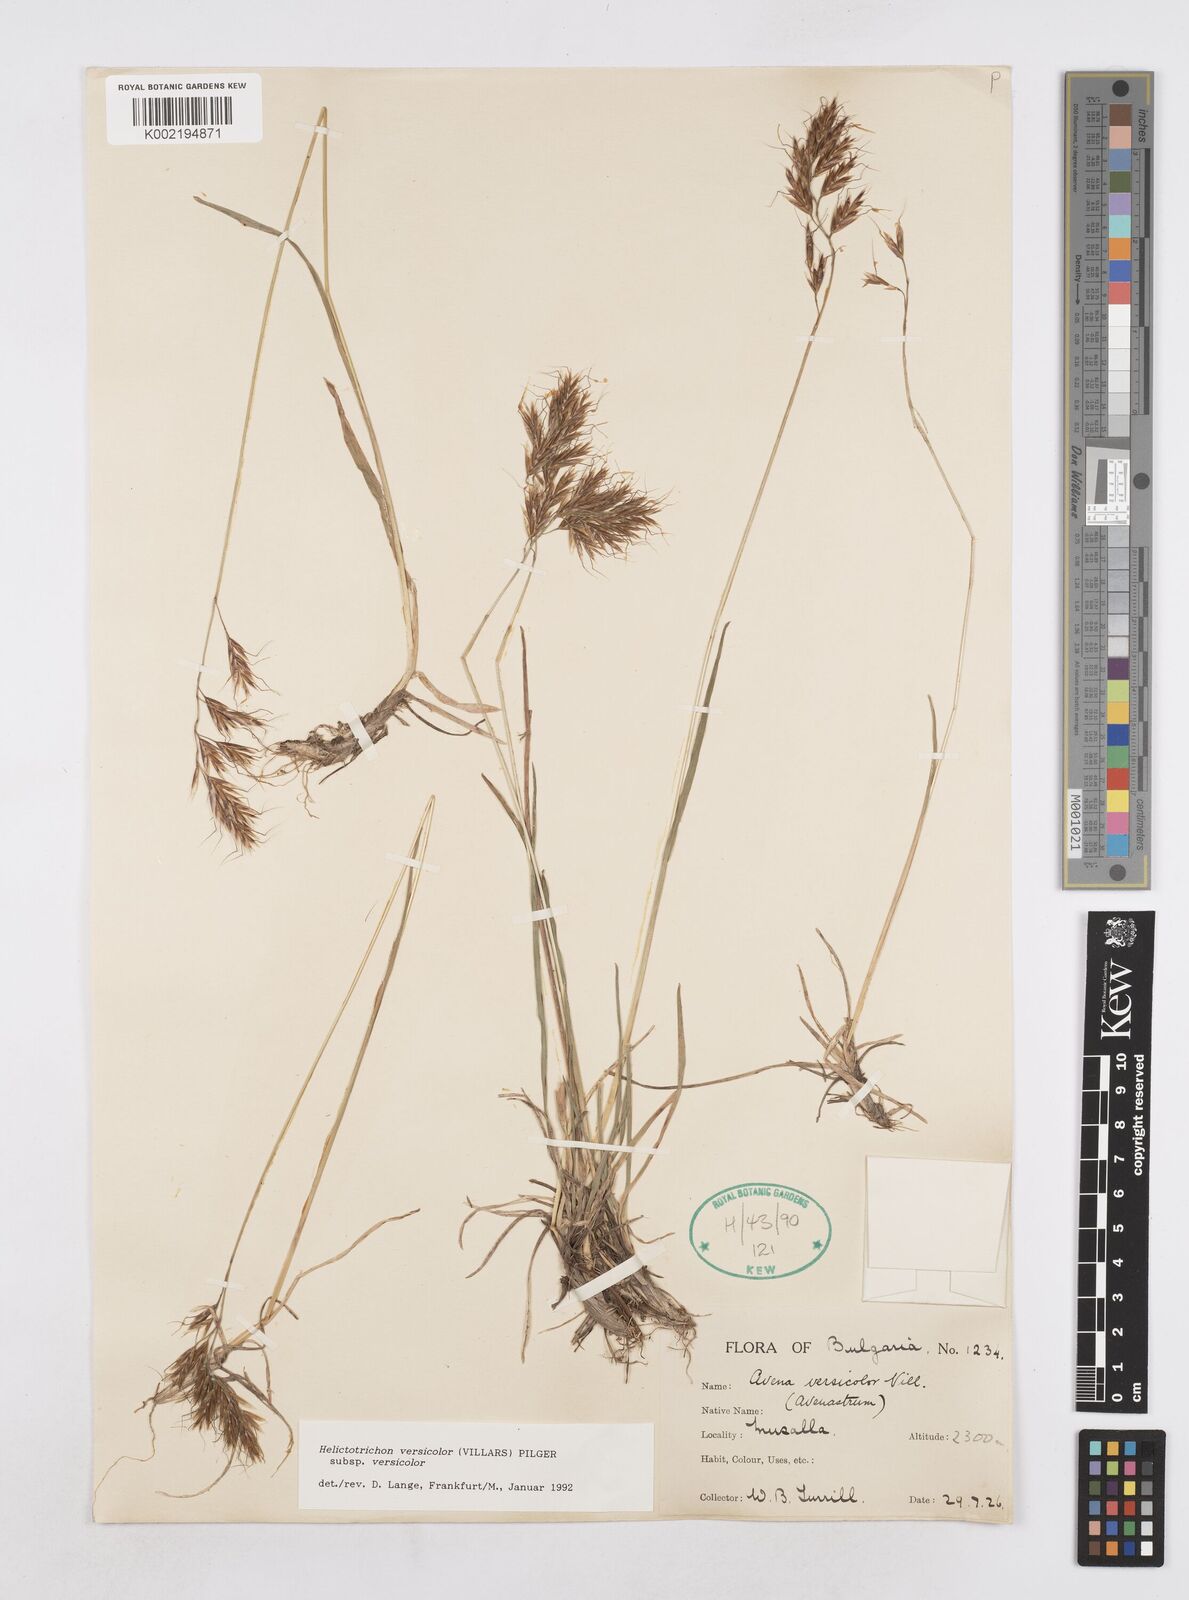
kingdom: Plantae
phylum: Tracheophyta
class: Liliopsida
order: Poales
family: Poaceae
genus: Helictochloa
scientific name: Helictochloa versicolor
